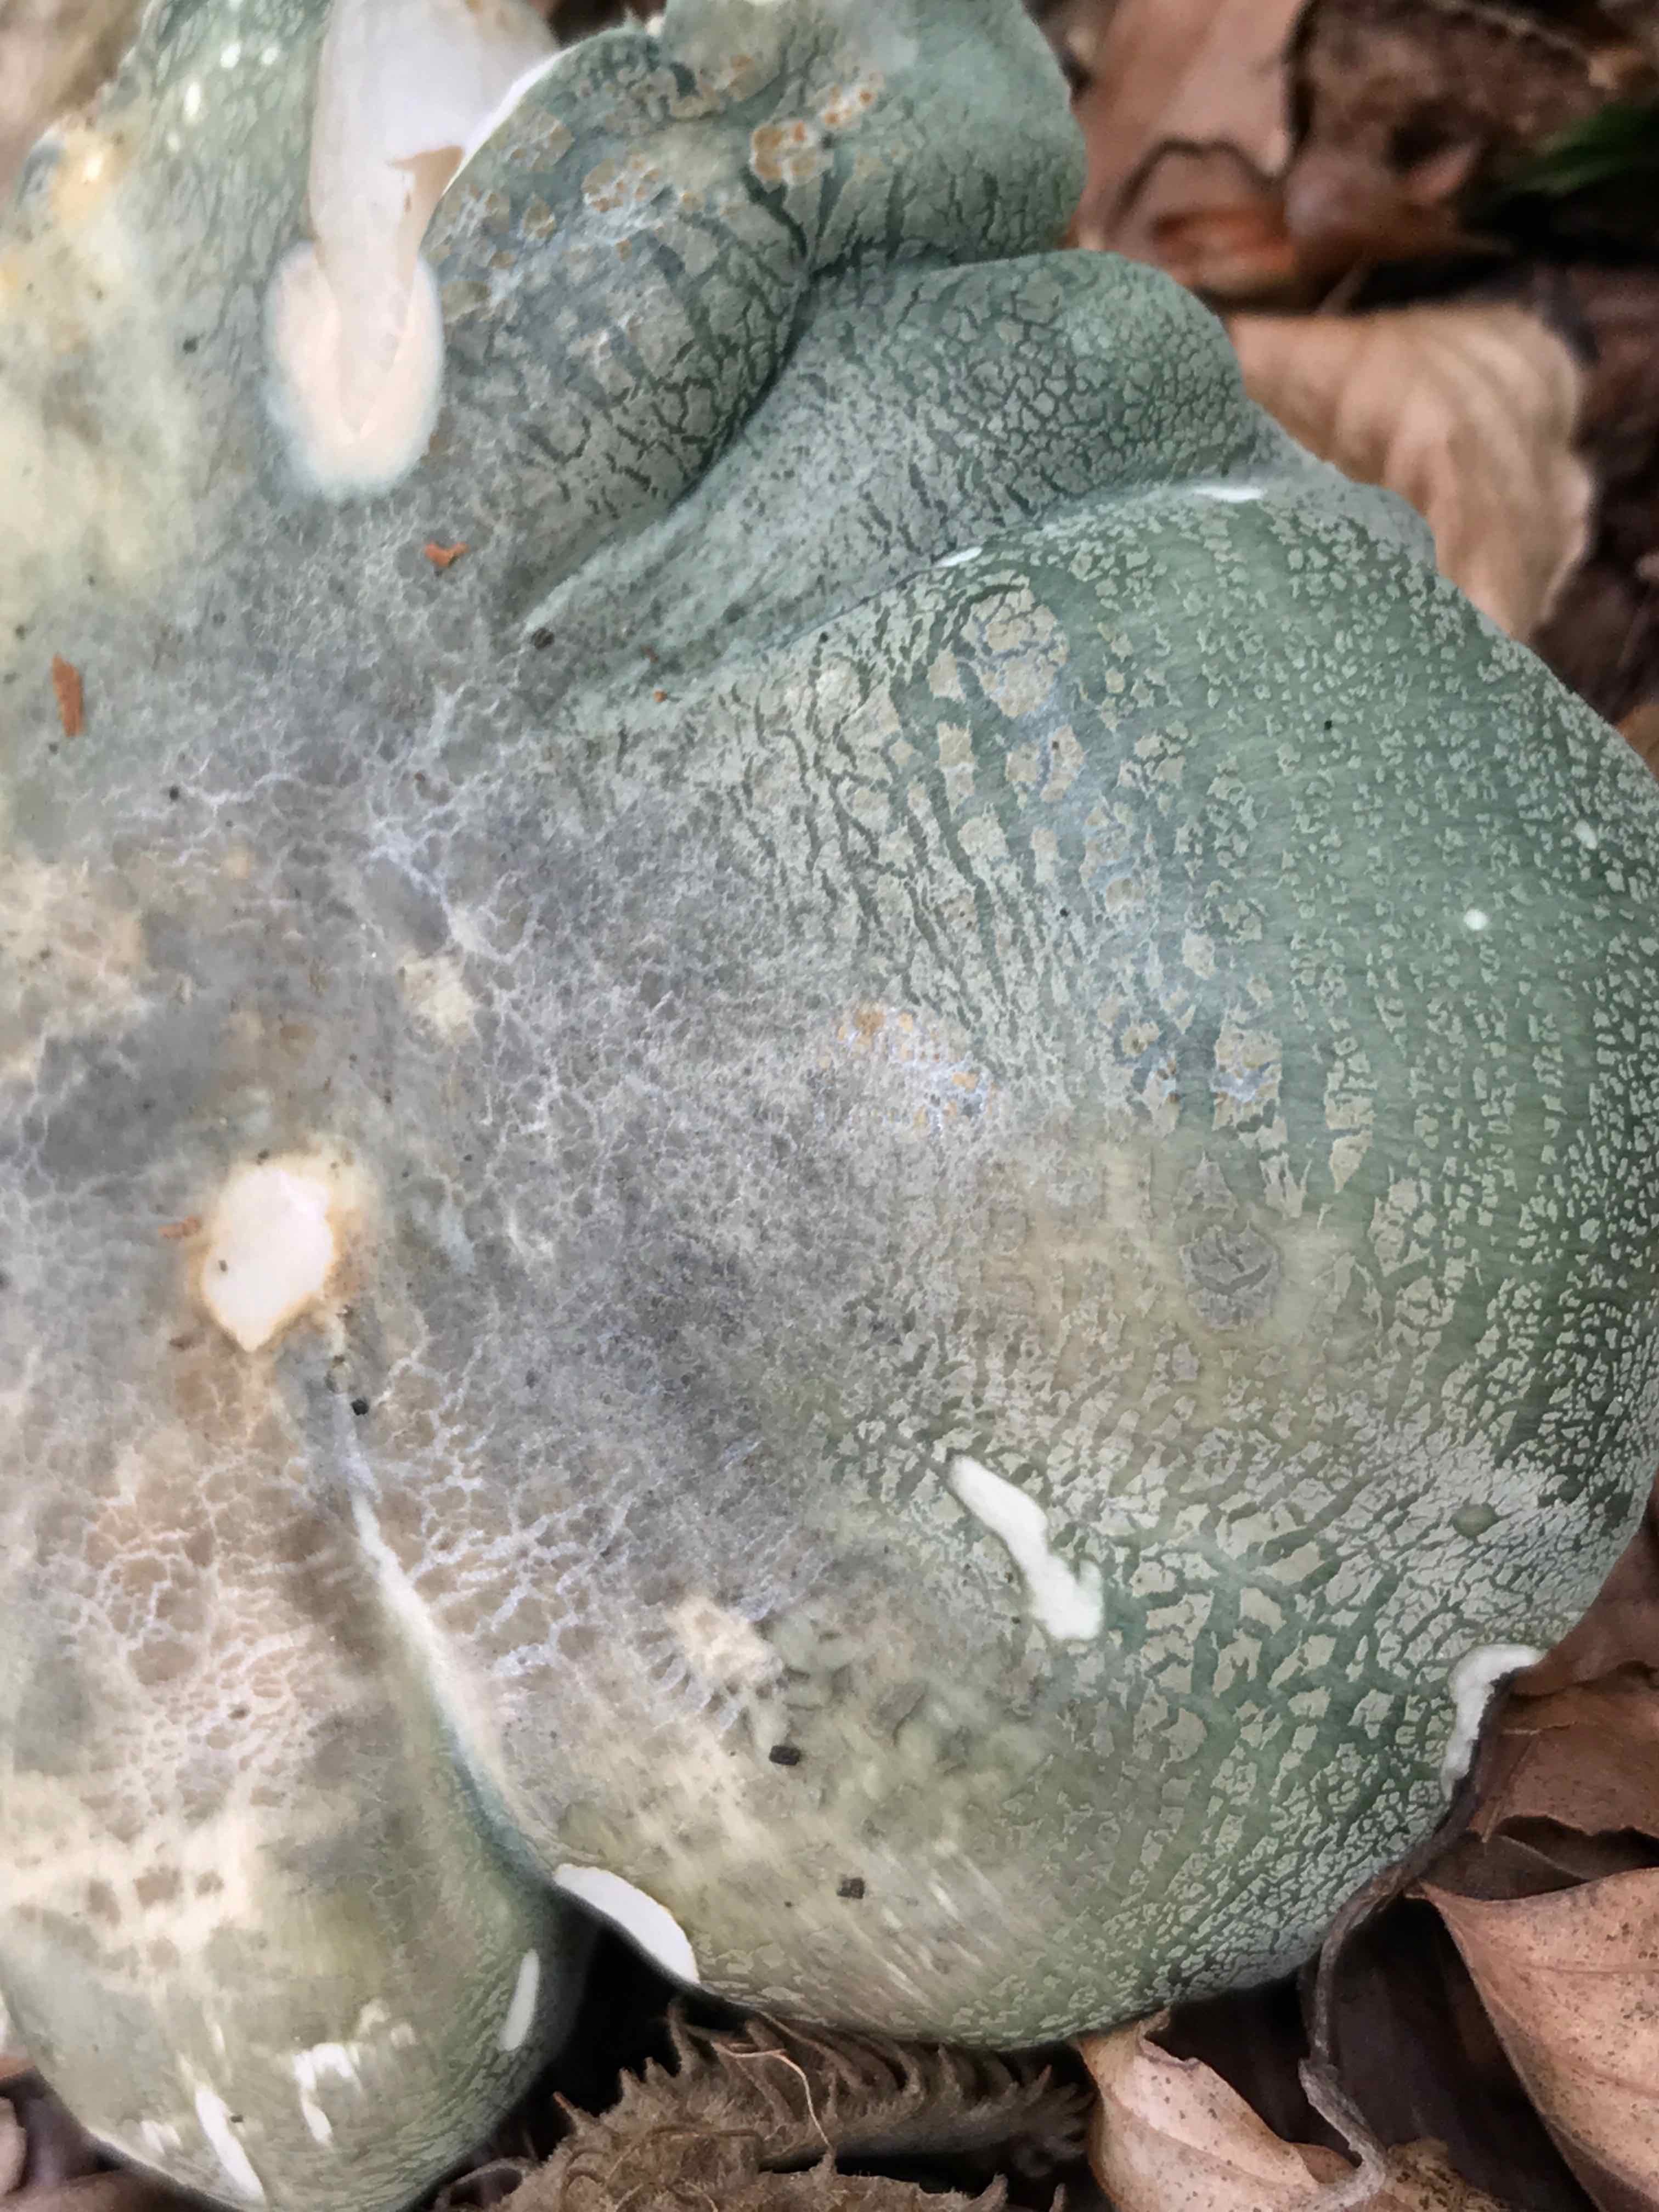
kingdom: Fungi
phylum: Basidiomycota
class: Agaricomycetes
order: Russulales
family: Russulaceae
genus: Russula
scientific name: Russula virescens
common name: spanskgrøn skørhat
